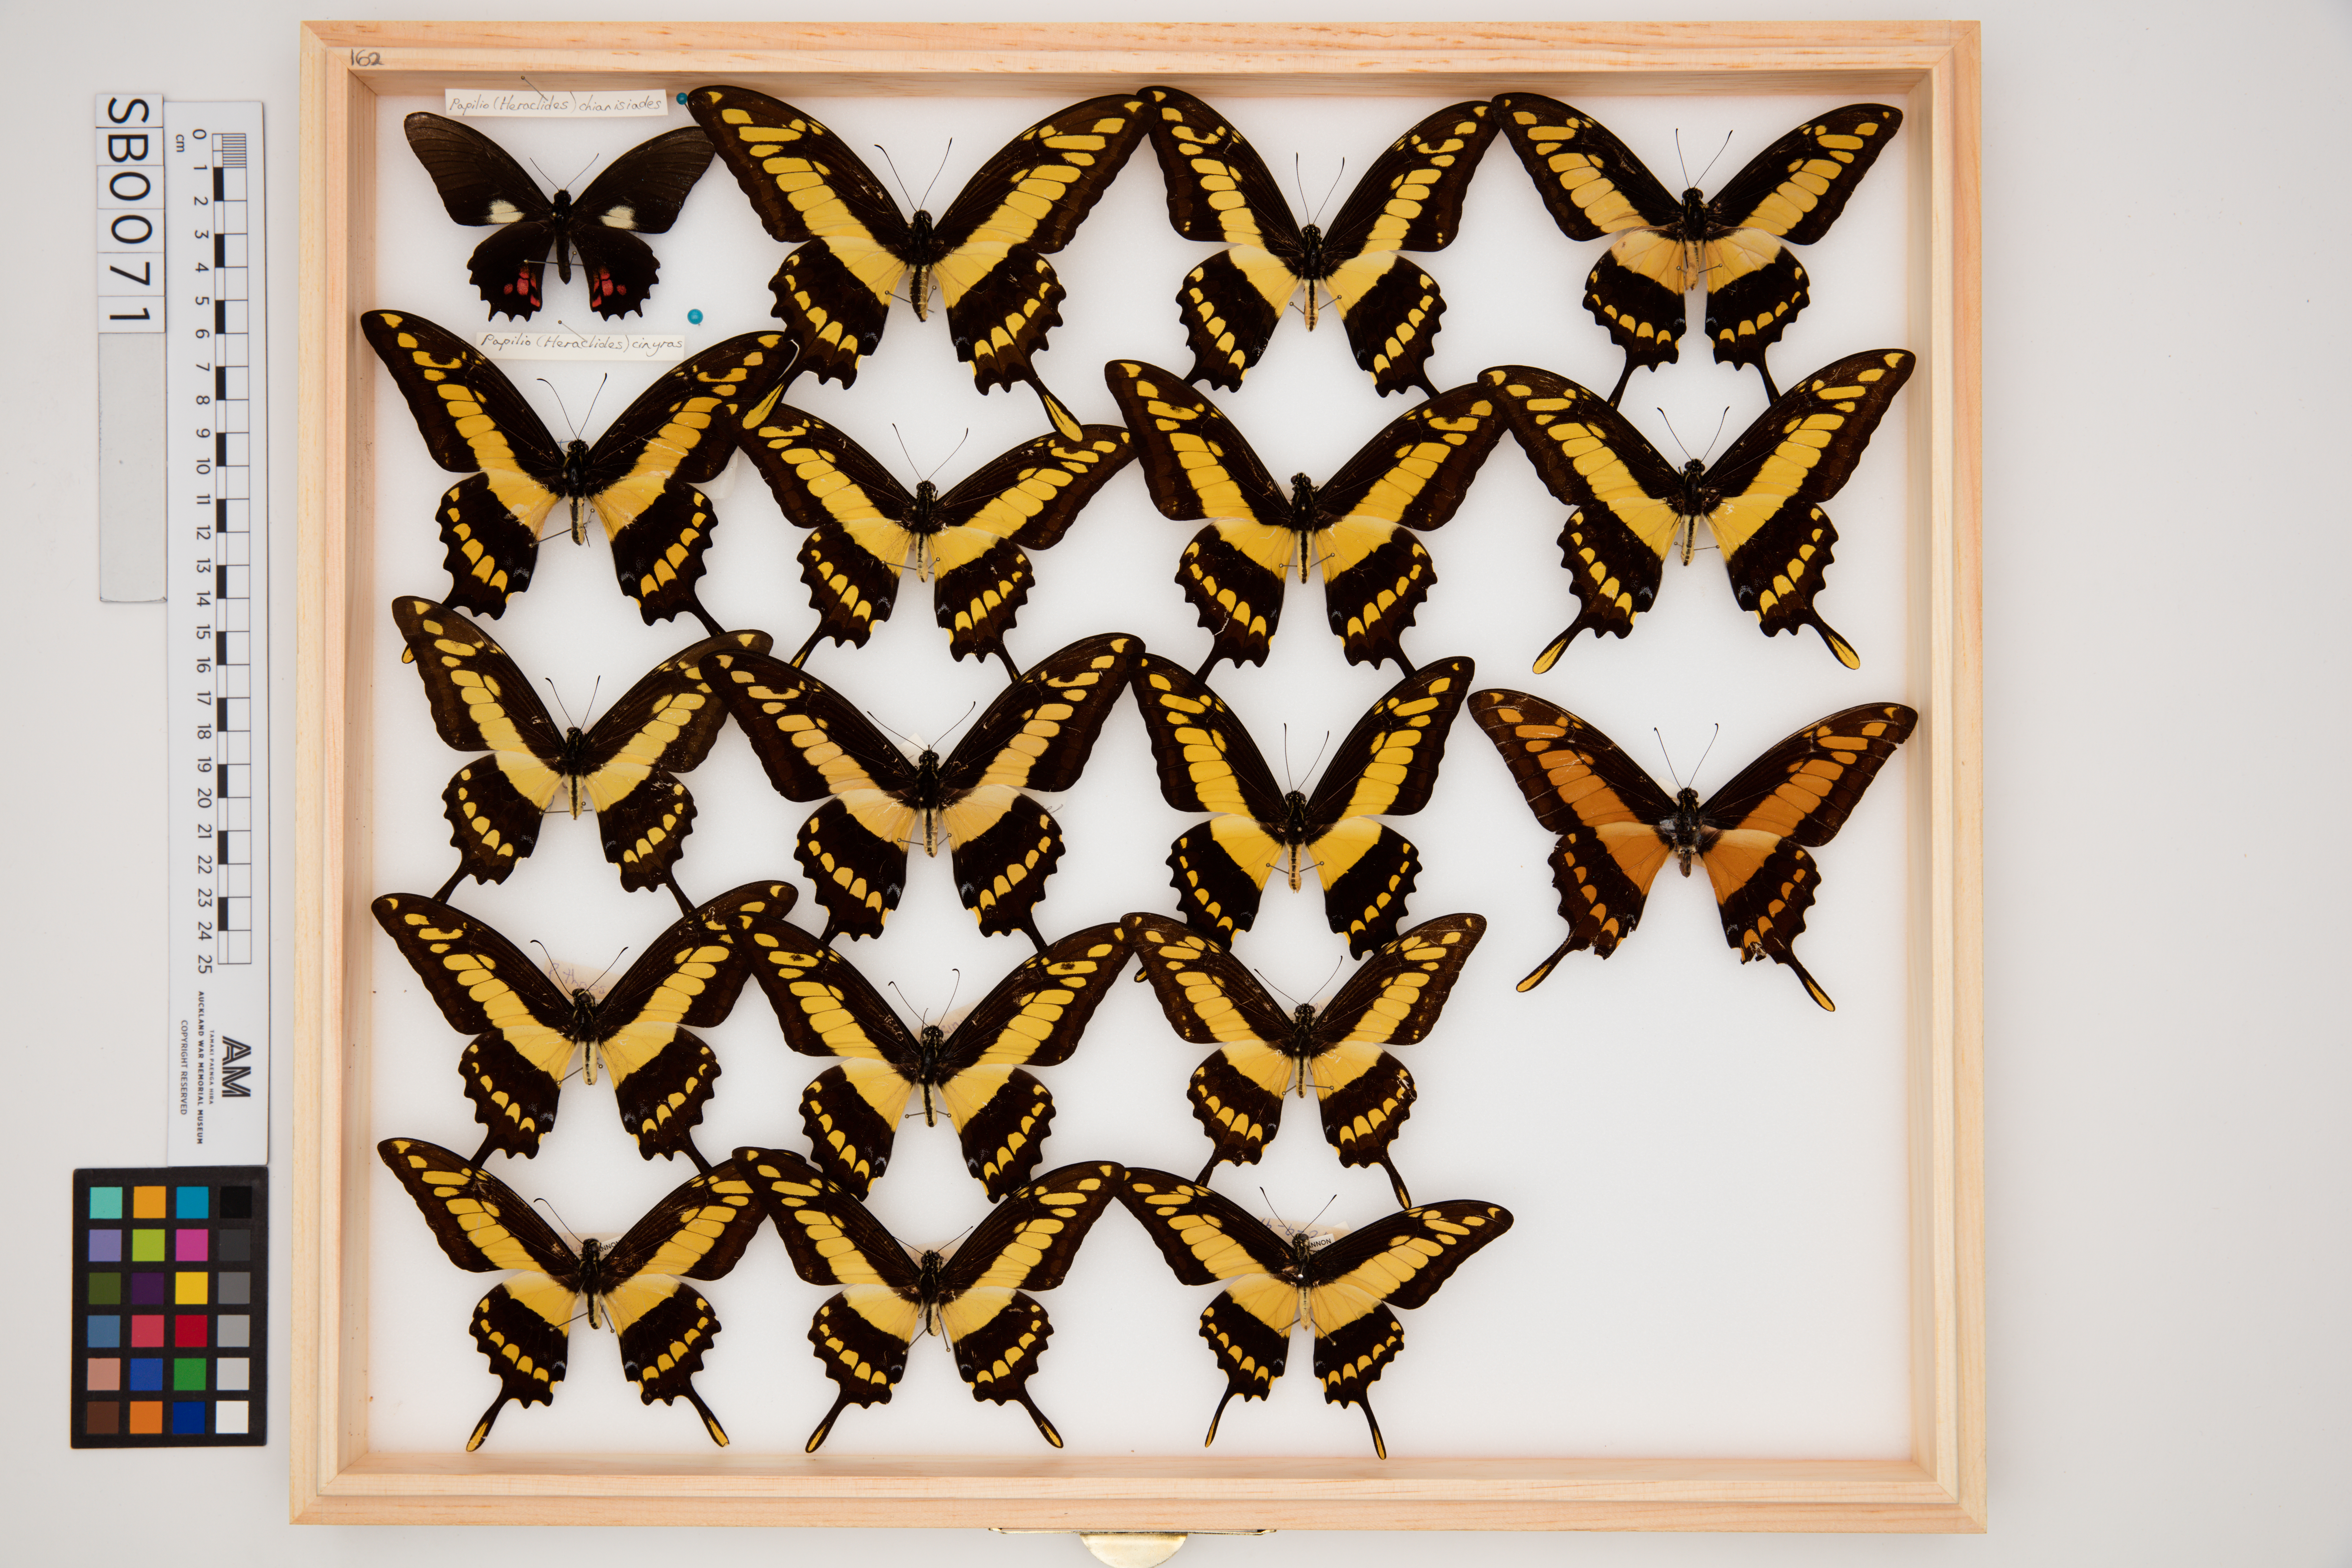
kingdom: Animalia
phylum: Arthropoda
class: Insecta
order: Lepidoptera
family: Lycaenidae
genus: Curetis
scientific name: Curetis thetis
